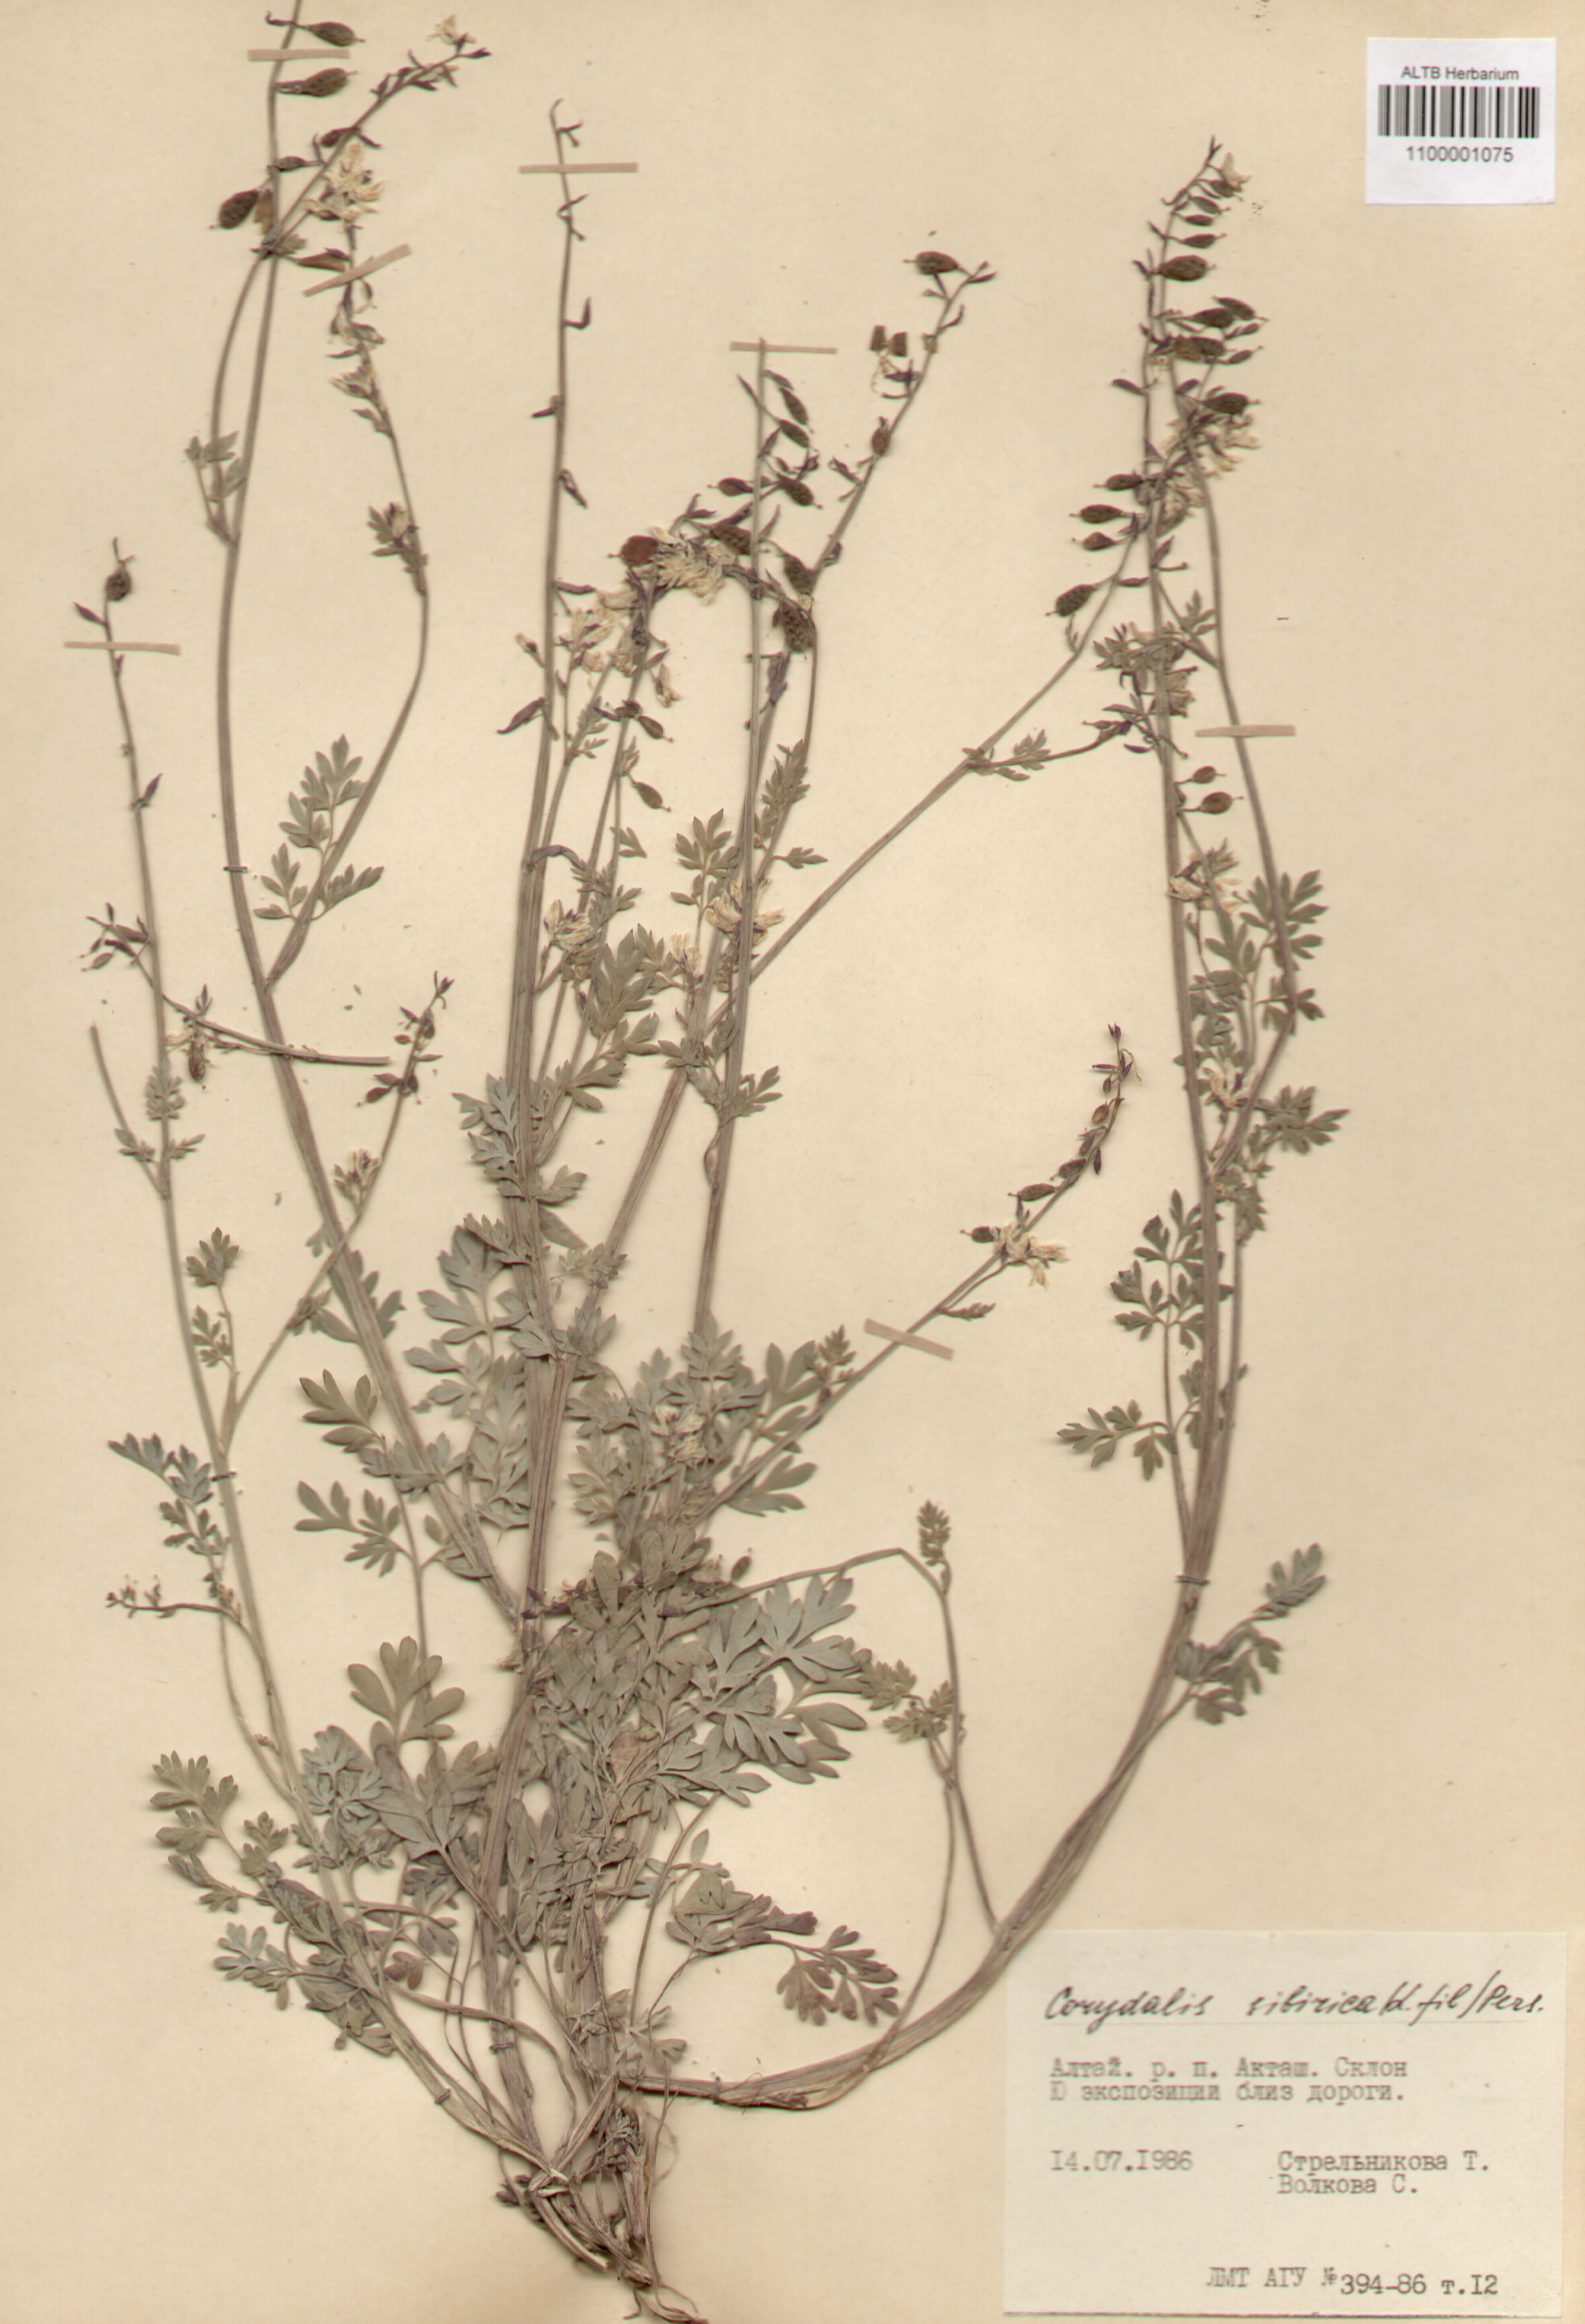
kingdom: Plantae
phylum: Tracheophyta
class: Magnoliopsida
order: Ranunculales
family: Papaveraceae
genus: Corydalis
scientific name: Corydalis sibirica
